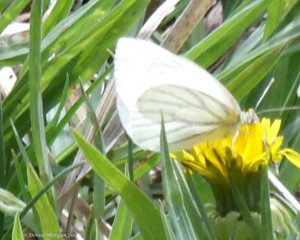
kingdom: Animalia
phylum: Arthropoda
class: Insecta
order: Lepidoptera
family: Pieridae
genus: Pieris
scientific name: Pieris virginiensis
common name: West Virginia White
